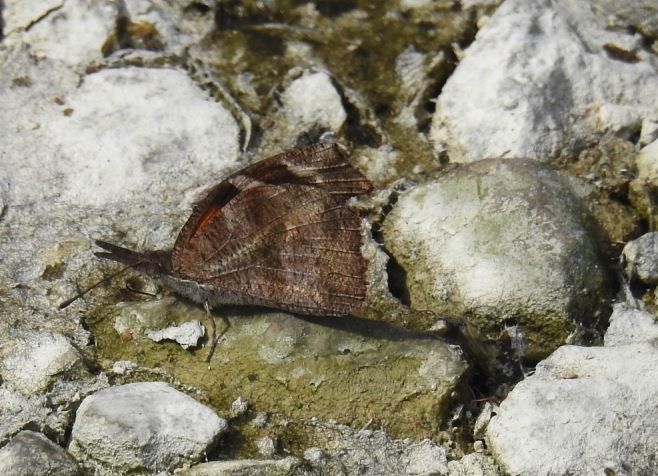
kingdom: Animalia
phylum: Arthropoda
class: Insecta
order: Lepidoptera
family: Nymphalidae
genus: Libytheana
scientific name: Libytheana carinenta
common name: American Snout
